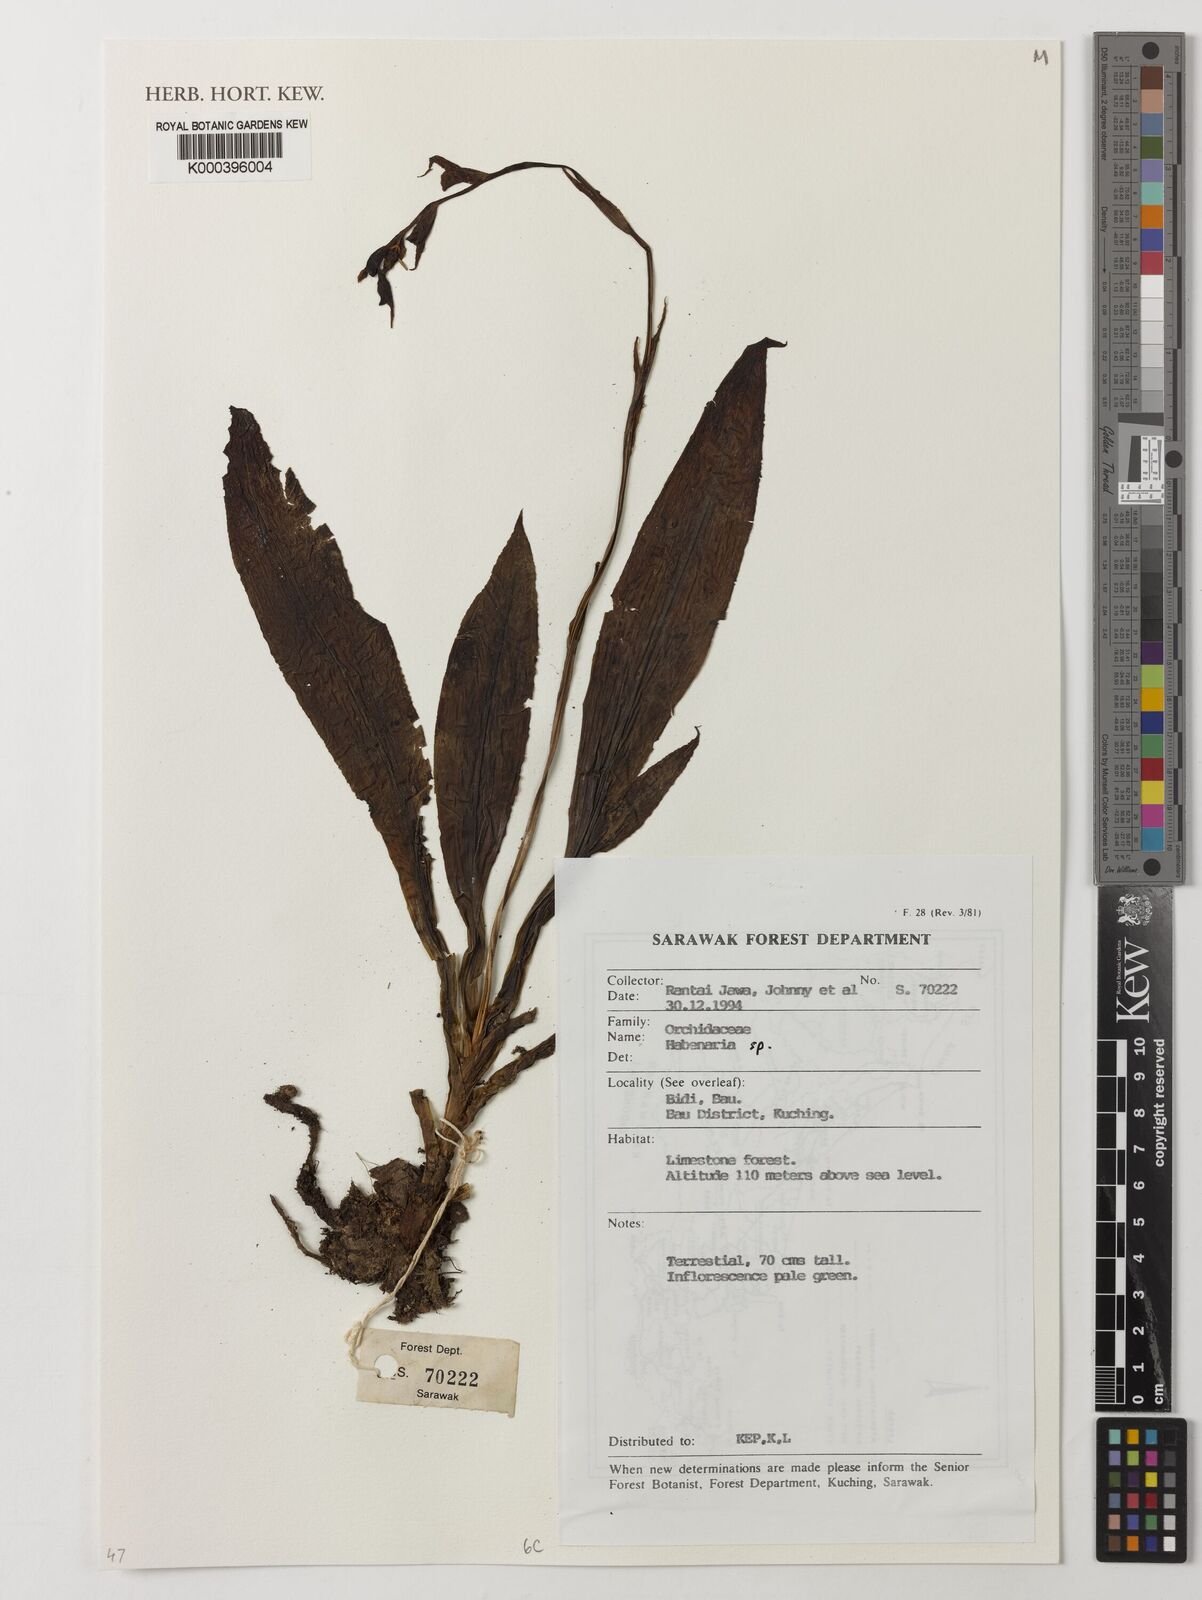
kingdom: Plantae
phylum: Tracheophyta
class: Liliopsida
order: Asparagales
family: Orchidaceae
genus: Habenaria
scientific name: Habenaria
